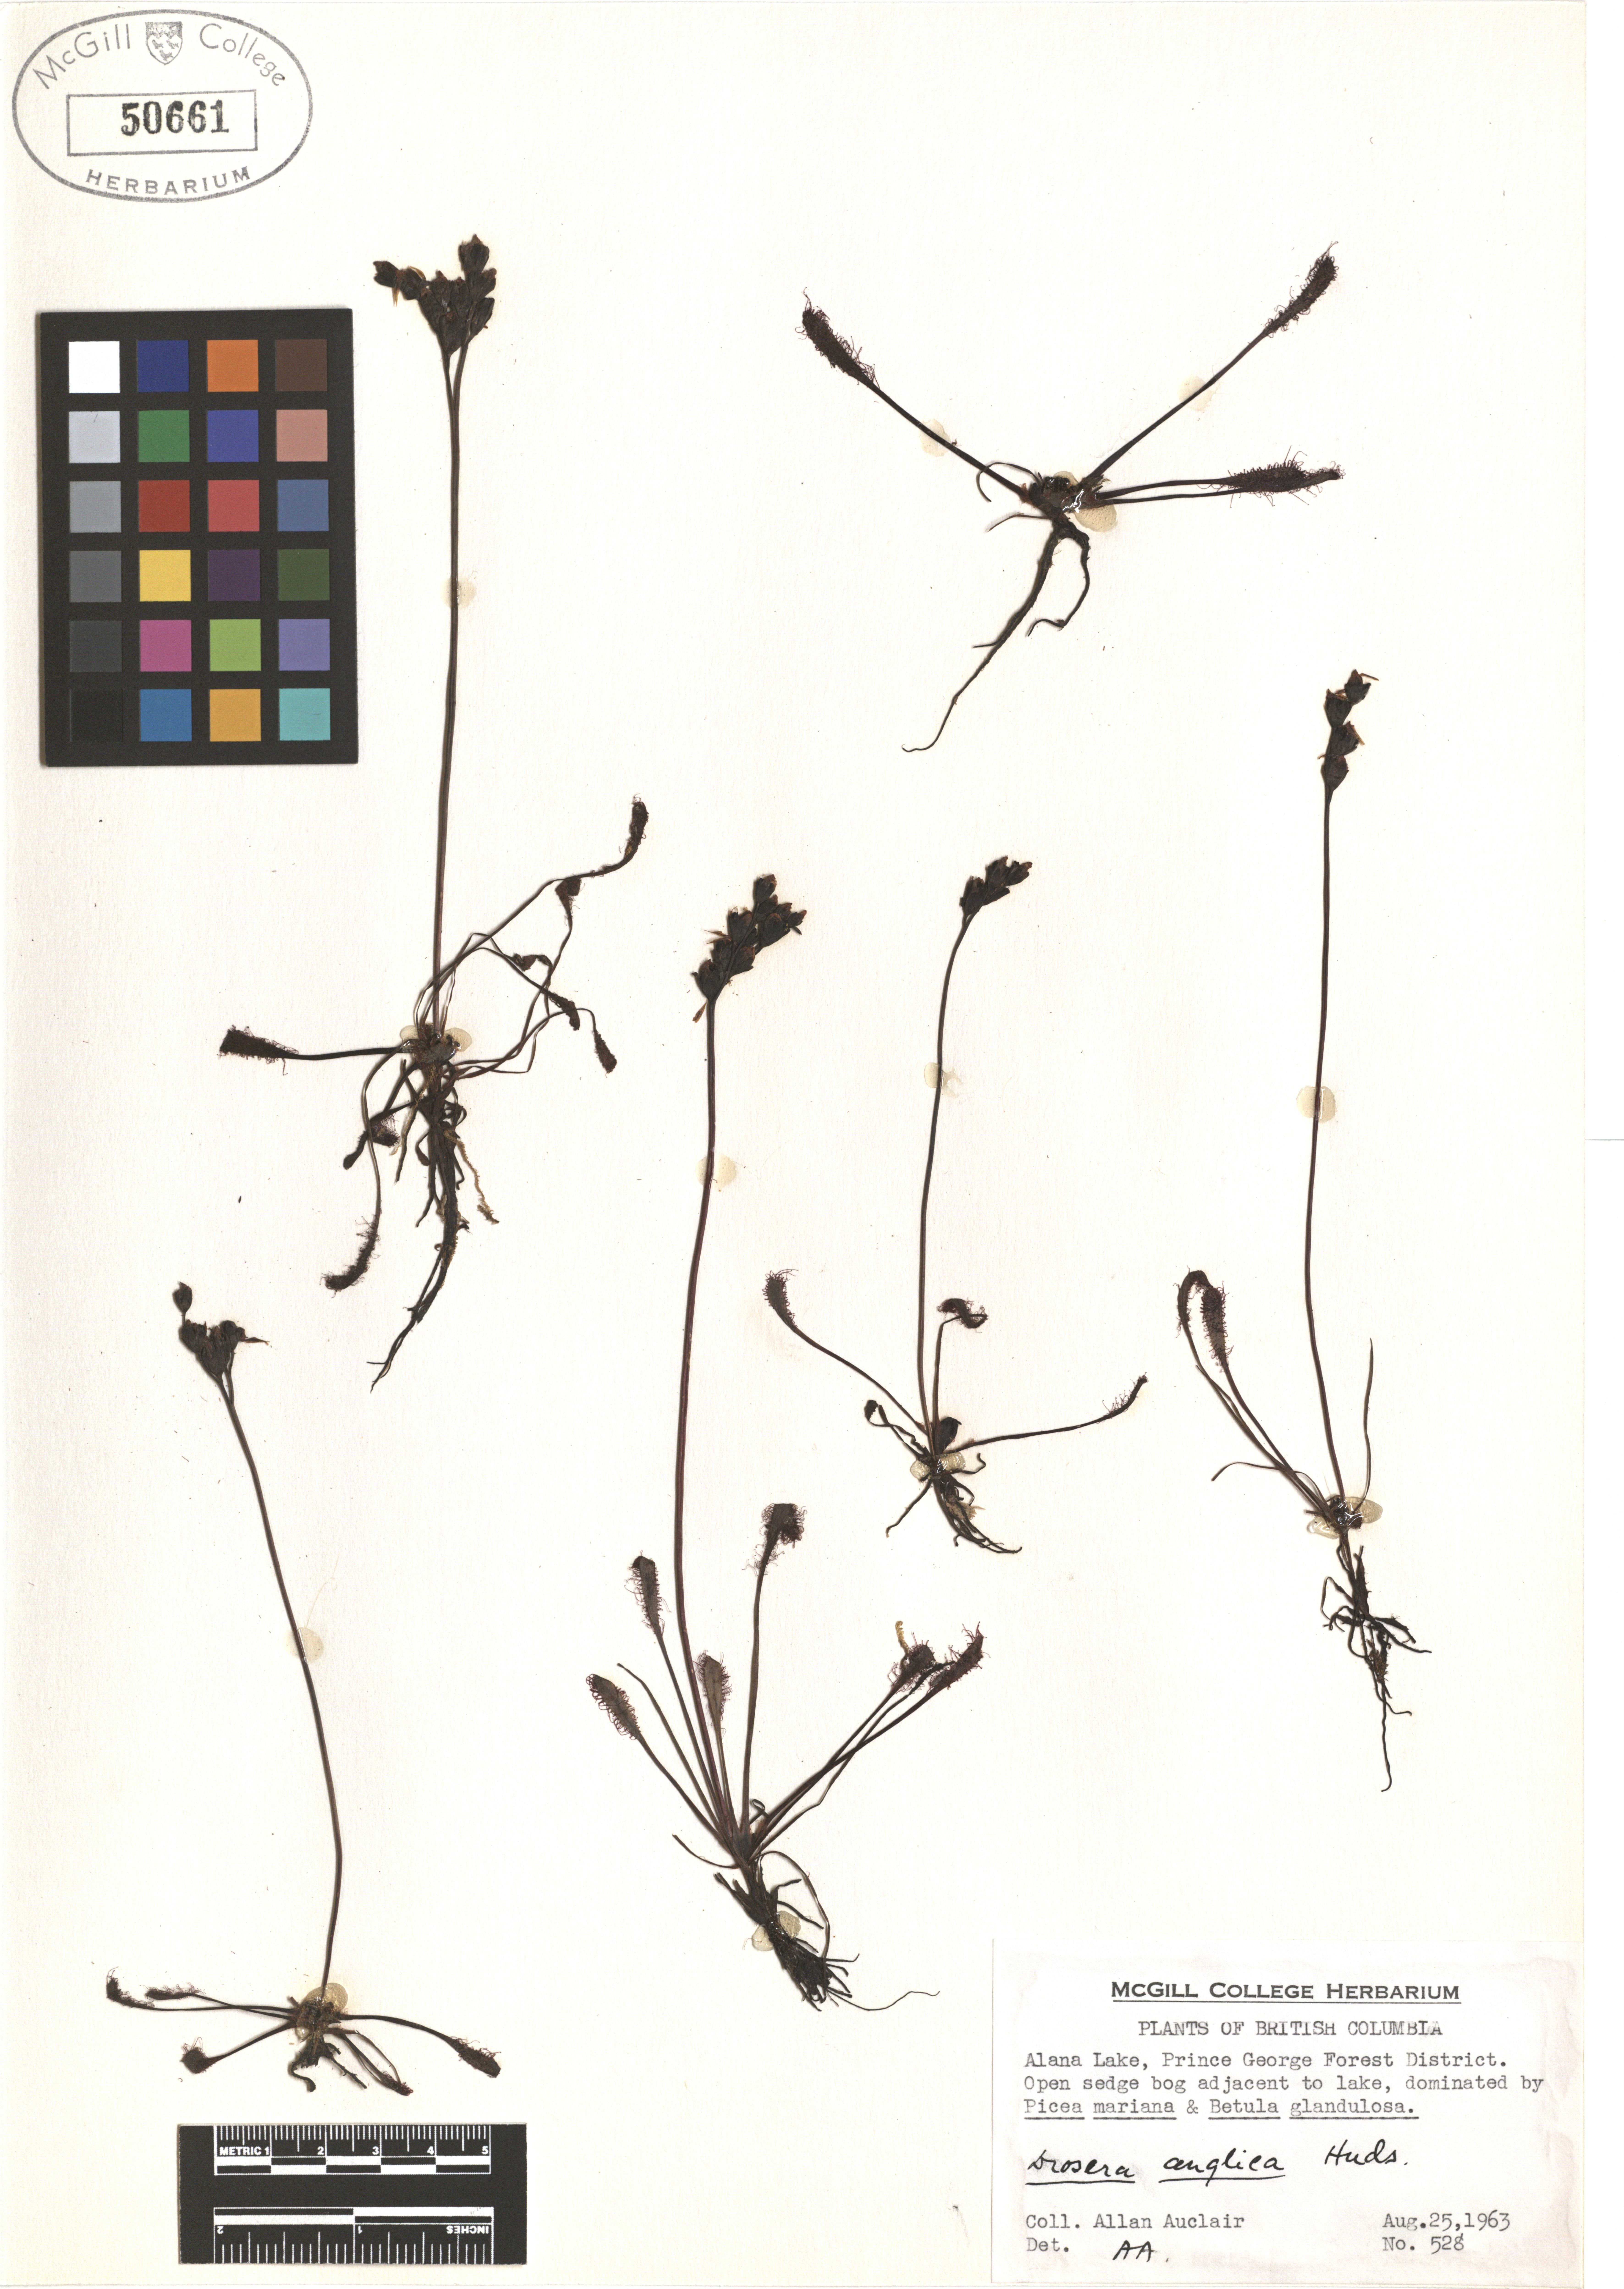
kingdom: Plantae
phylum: Tracheophyta
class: Magnoliopsida
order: Caryophyllales
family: Droseraceae
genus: Drosera
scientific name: Drosera anglica
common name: Great sundew
